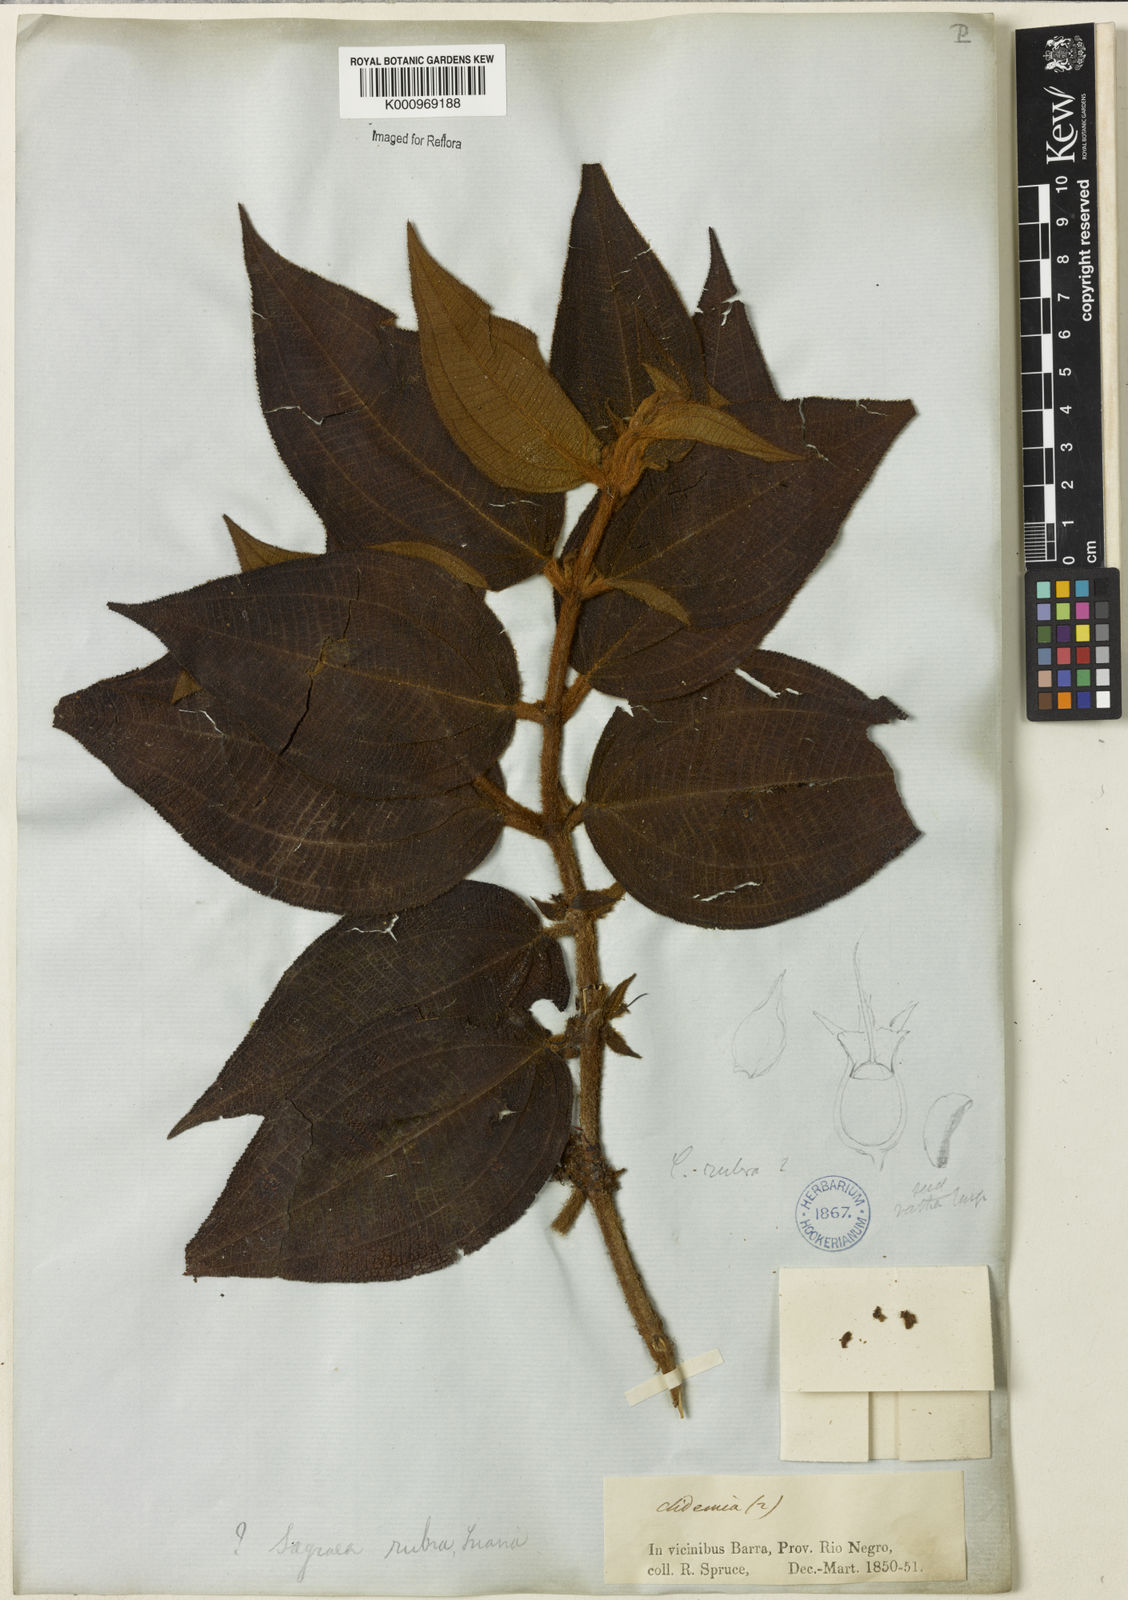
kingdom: Plantae
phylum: Tracheophyta
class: Magnoliopsida
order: Myrtales
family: Melastomataceae
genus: Miconia
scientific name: Miconia rubra
